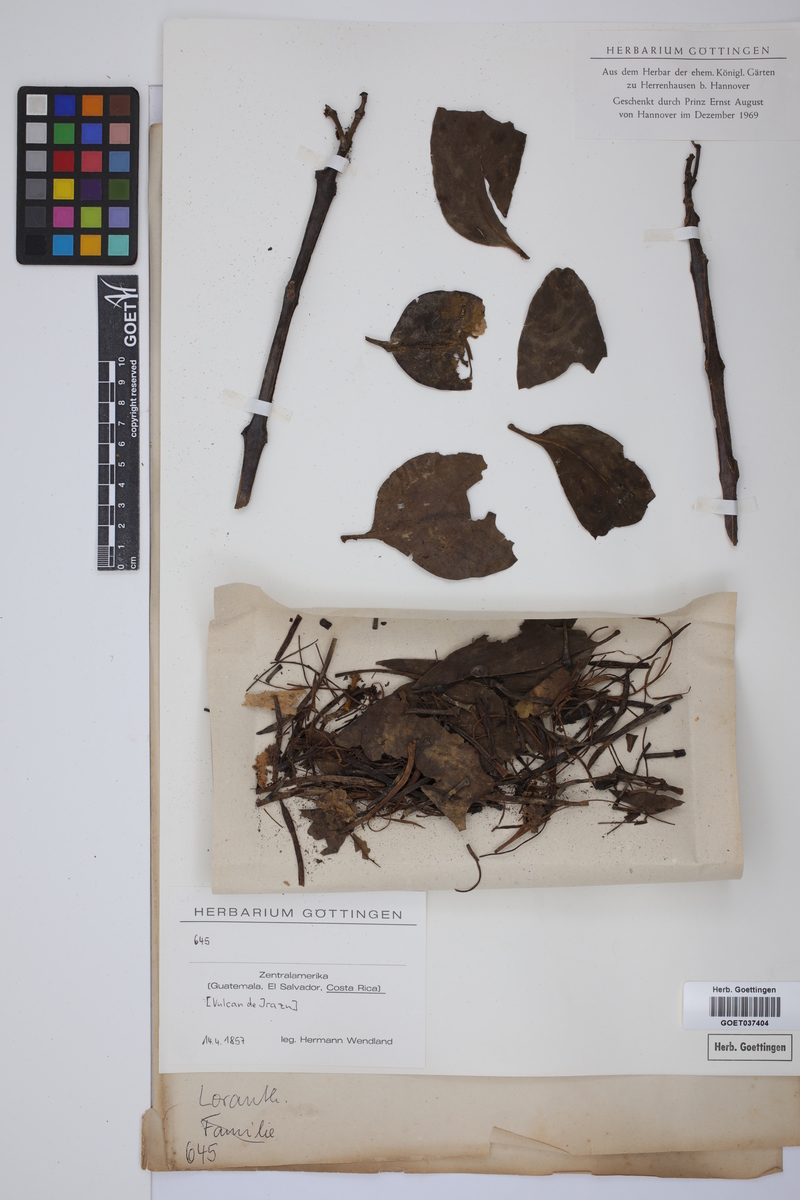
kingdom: Plantae
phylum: Tracheophyta
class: Magnoliopsida
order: Santalales
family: Viscaceae
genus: Phoradendron
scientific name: Phoradendron
